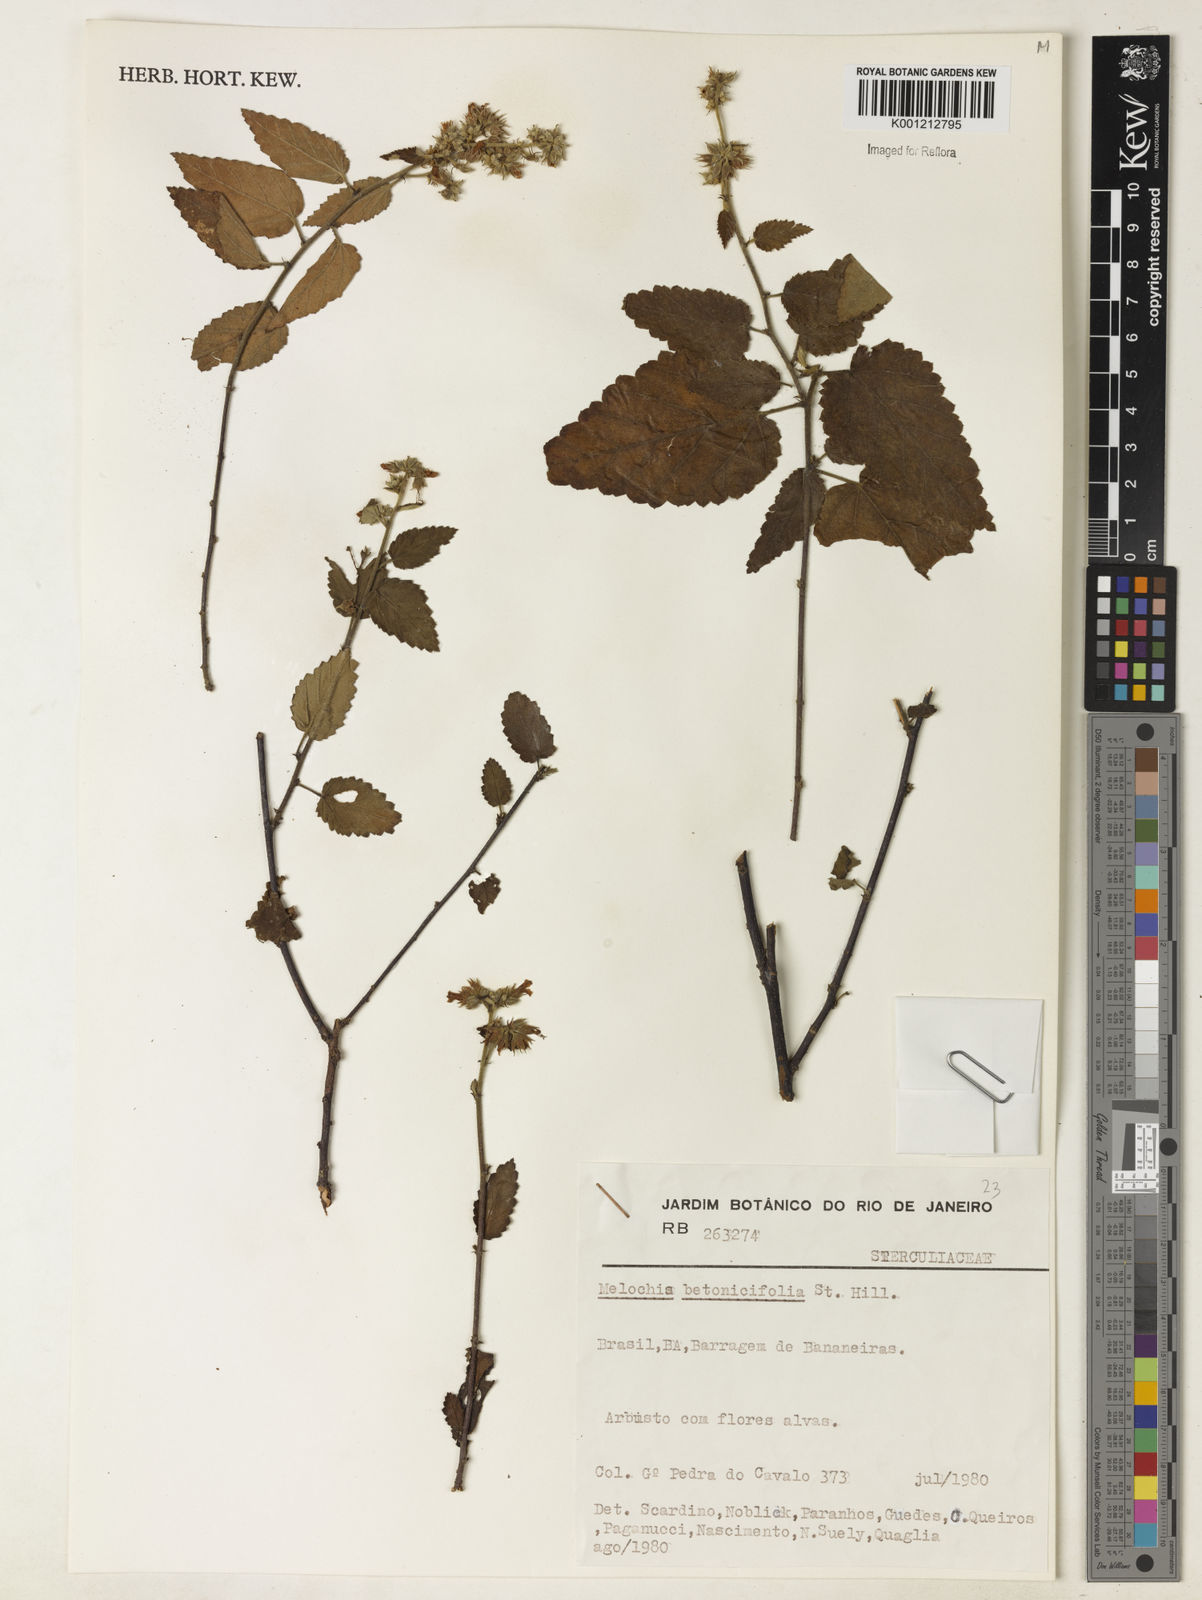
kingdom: Plantae
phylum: Tracheophyta
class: Magnoliopsida
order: Malvales
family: Malvaceae
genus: Melochia
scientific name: Melochia betonicifolia
